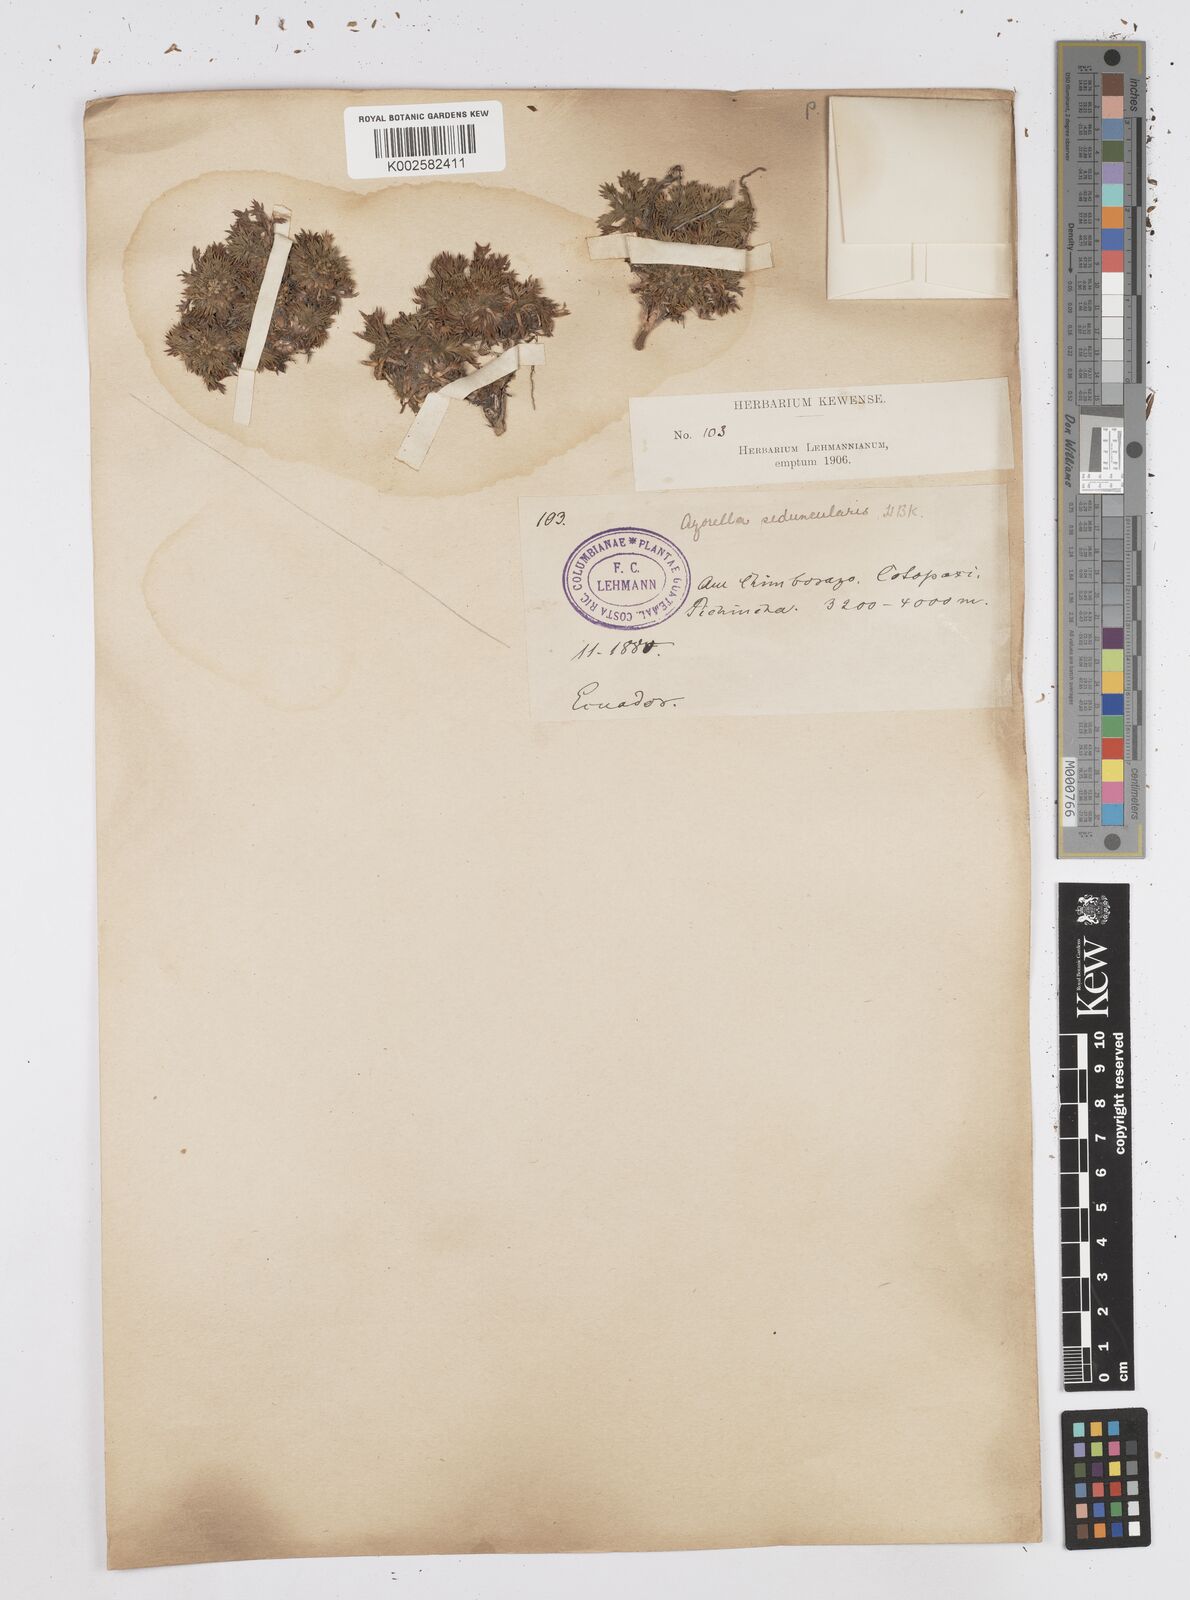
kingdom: Plantae
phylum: Tracheophyta
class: Magnoliopsida
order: Apiales
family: Apiaceae
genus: Azorella
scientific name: Azorella pedunculata
